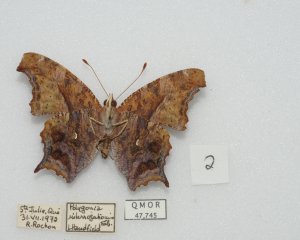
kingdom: Animalia
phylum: Arthropoda
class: Insecta
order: Lepidoptera
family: Nymphalidae
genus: Polygonia
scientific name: Polygonia interrogationis
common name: Question Mark
